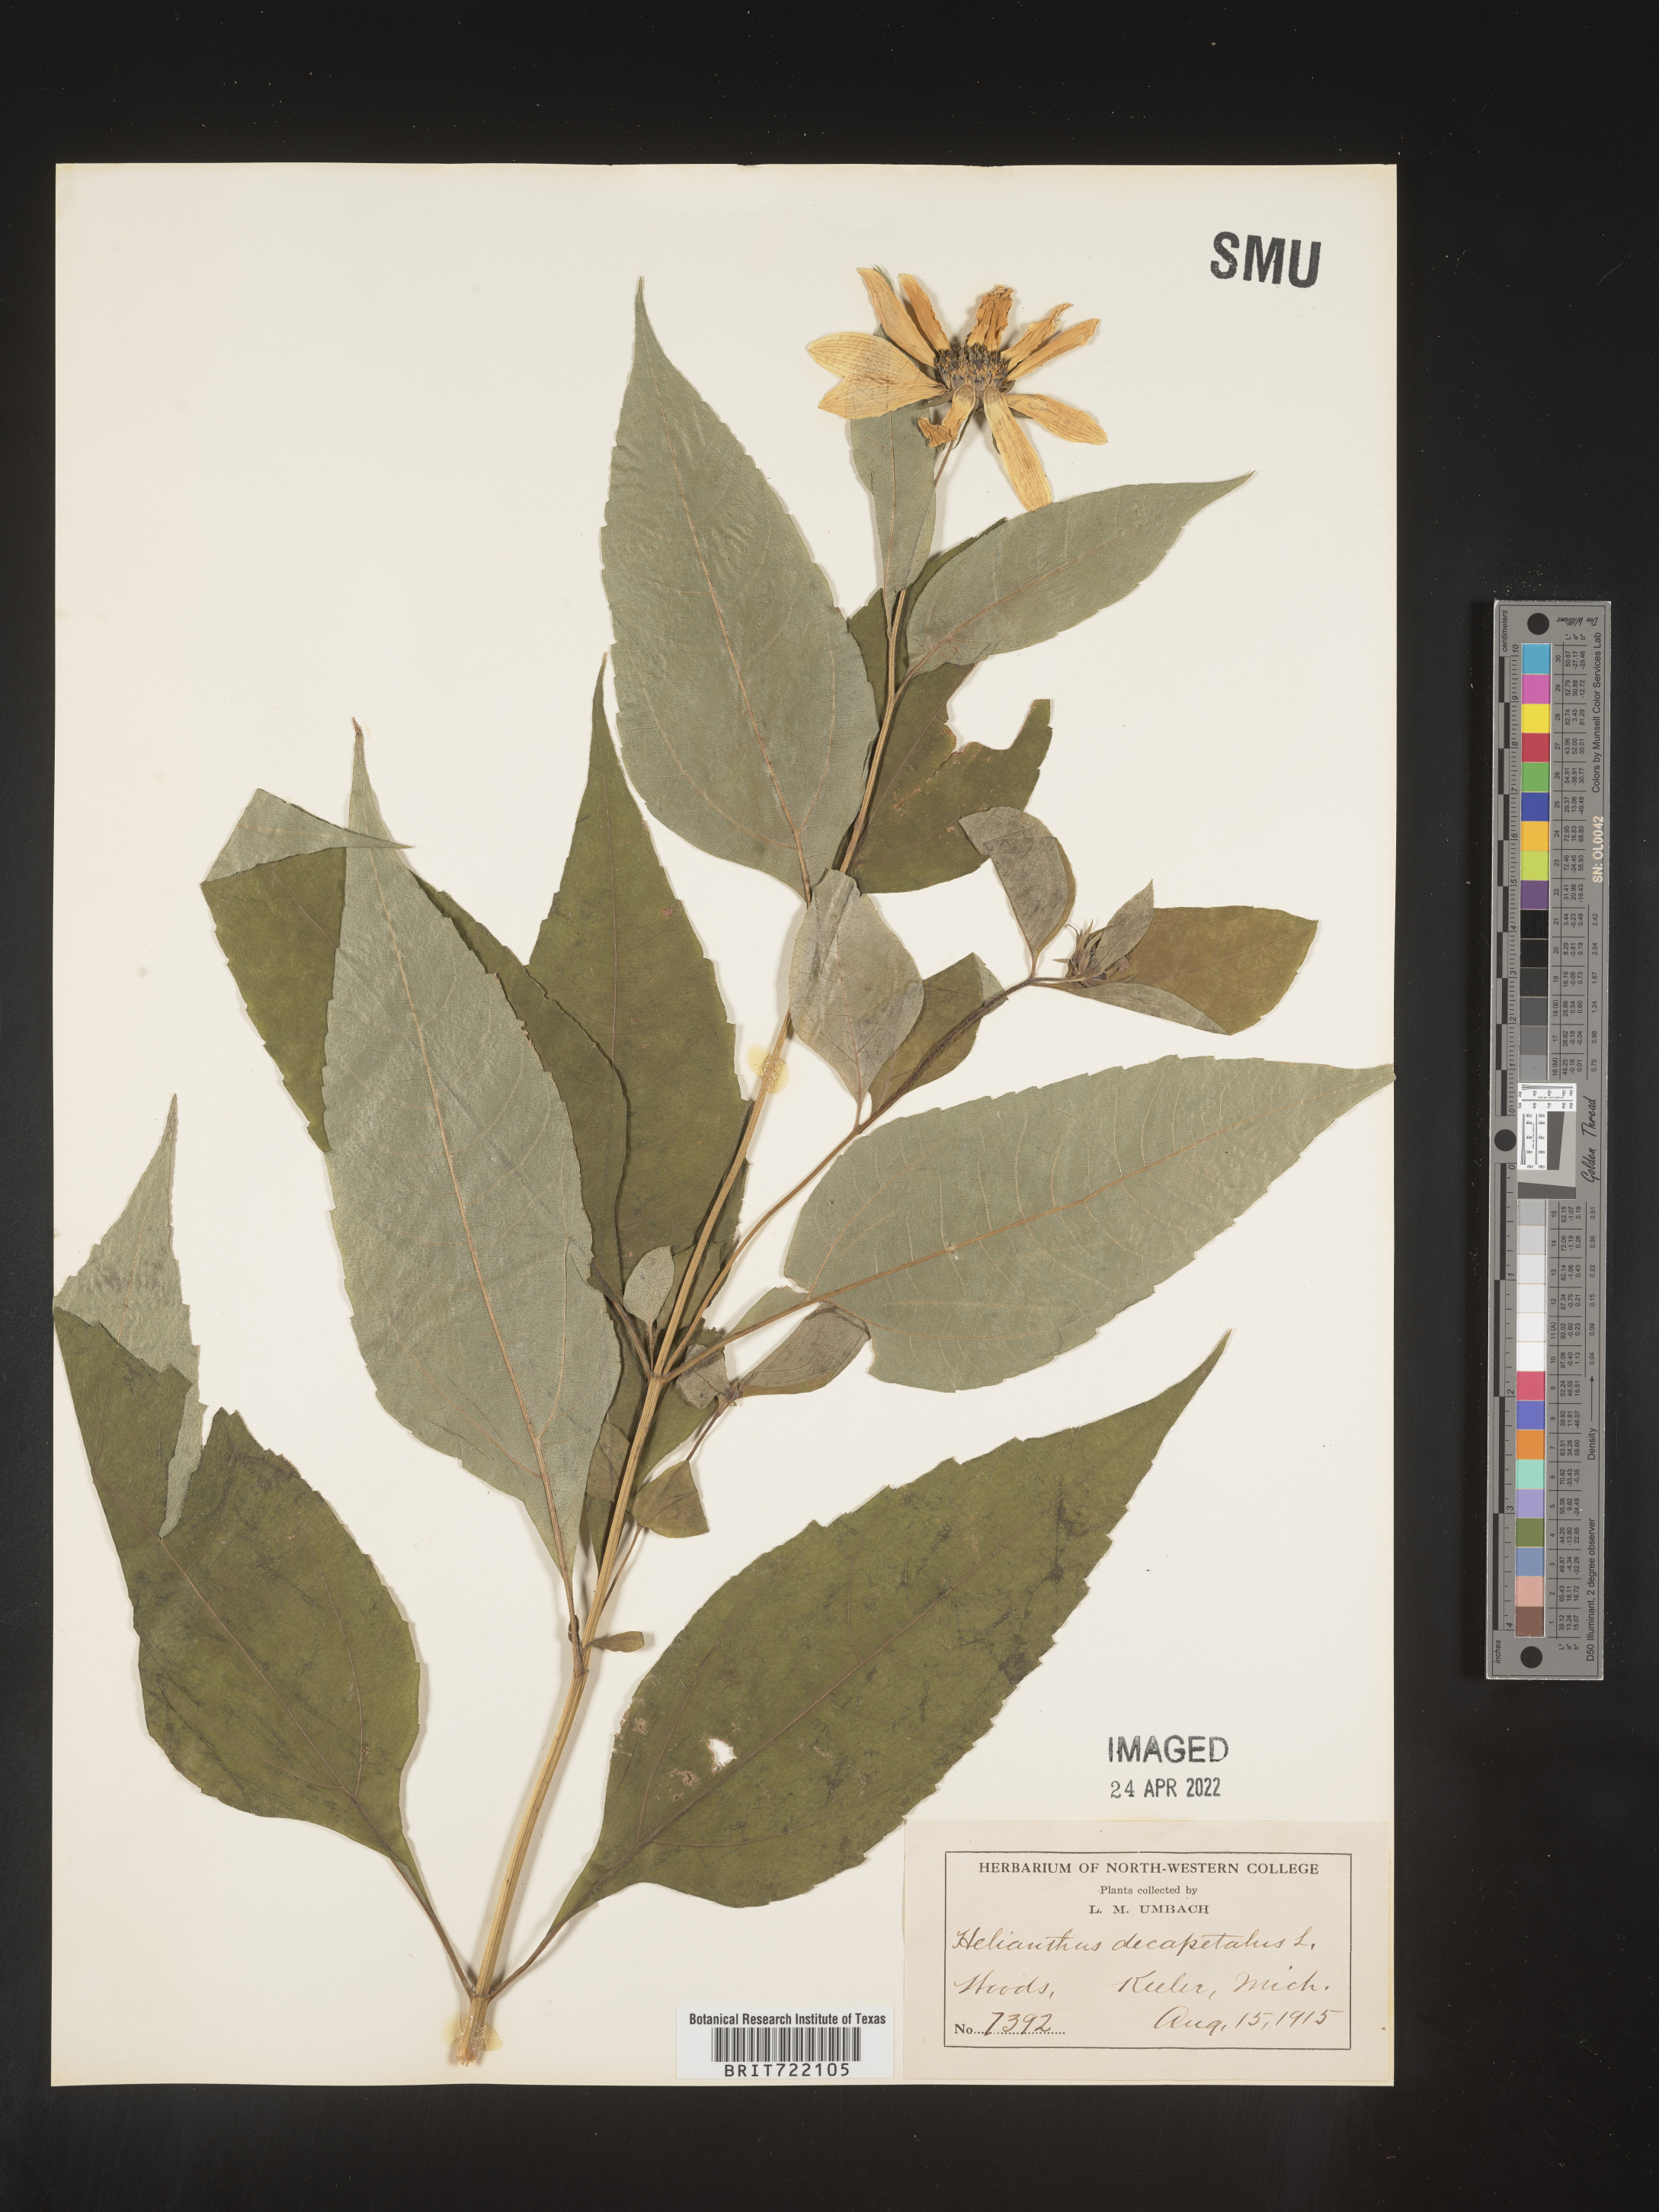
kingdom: Plantae
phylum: Tracheophyta
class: Magnoliopsida
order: Asterales
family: Asteraceae
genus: Helianthus
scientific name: Helianthus decapetalus
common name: Thin-leaved sunflower
